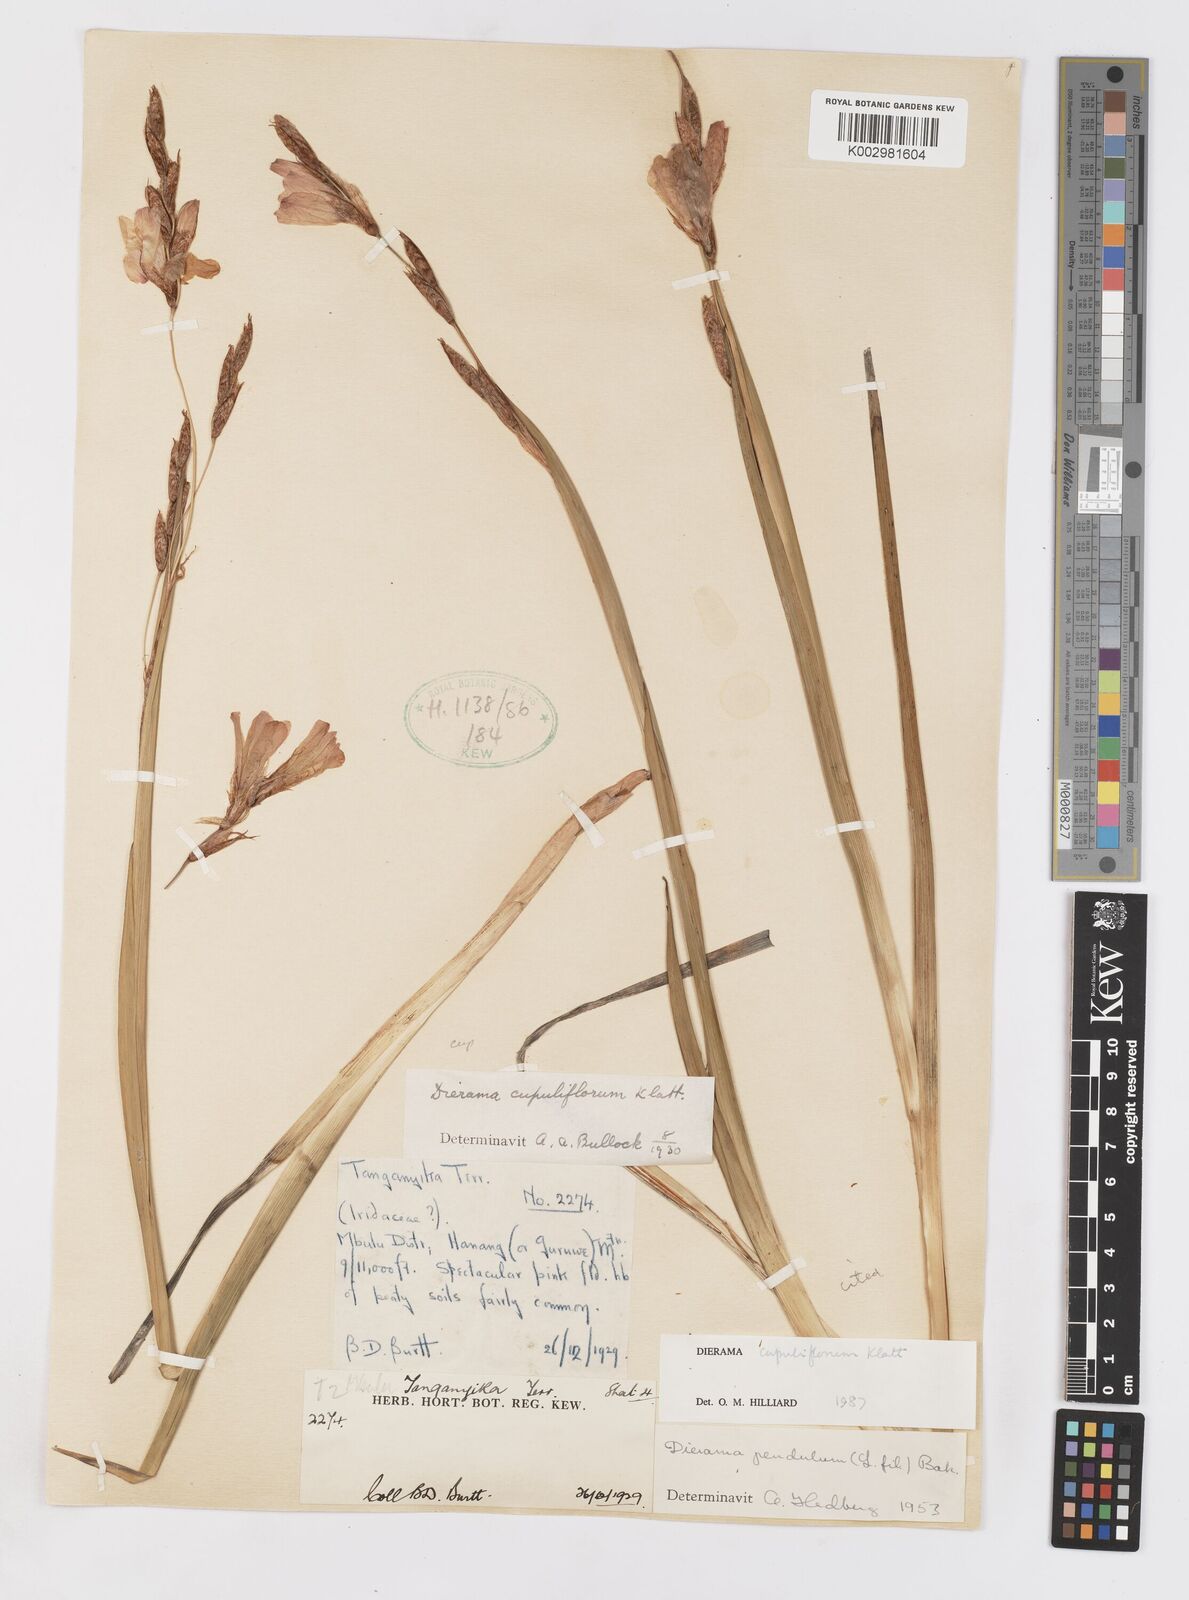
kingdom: Plantae
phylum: Tracheophyta
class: Liliopsida
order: Asparagales
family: Iridaceae
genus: Dierama
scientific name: Dierama cupuliflorum
